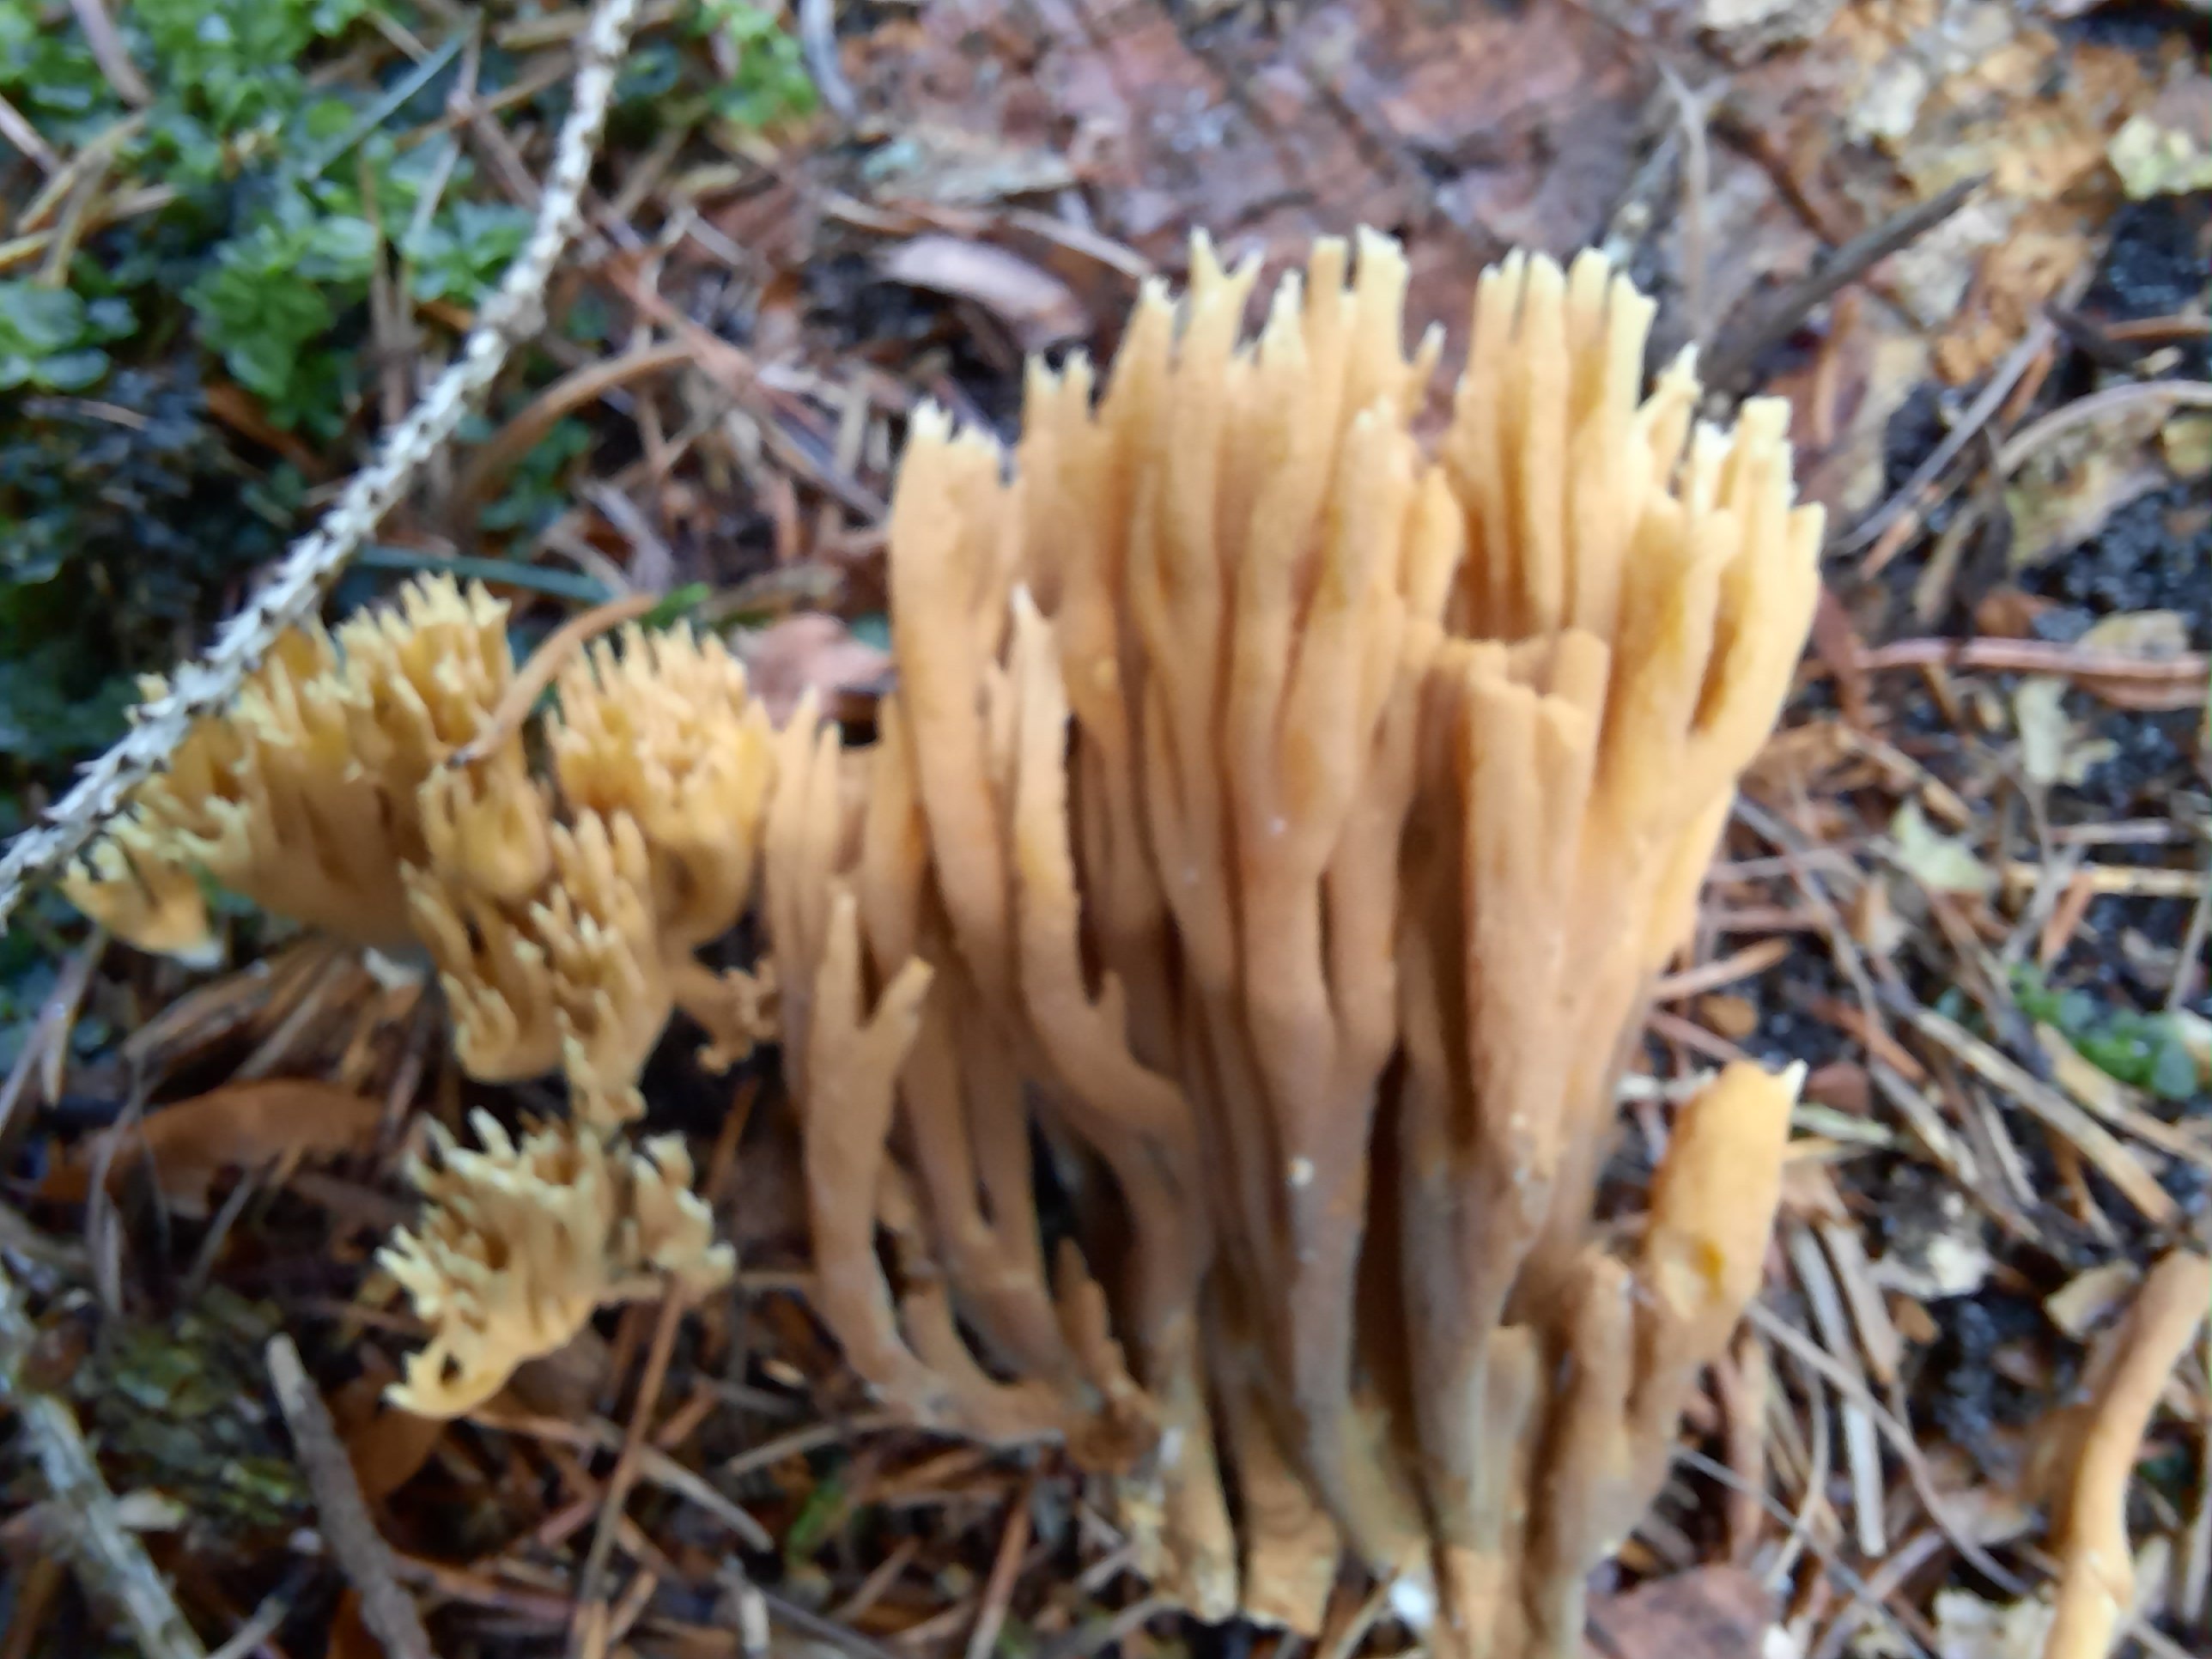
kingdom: Fungi
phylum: Basidiomycota
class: Agaricomycetes
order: Gomphales
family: Gomphaceae
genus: Phaeoclavulina
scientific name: Phaeoclavulina eumorpha
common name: gran-koralsvamp
